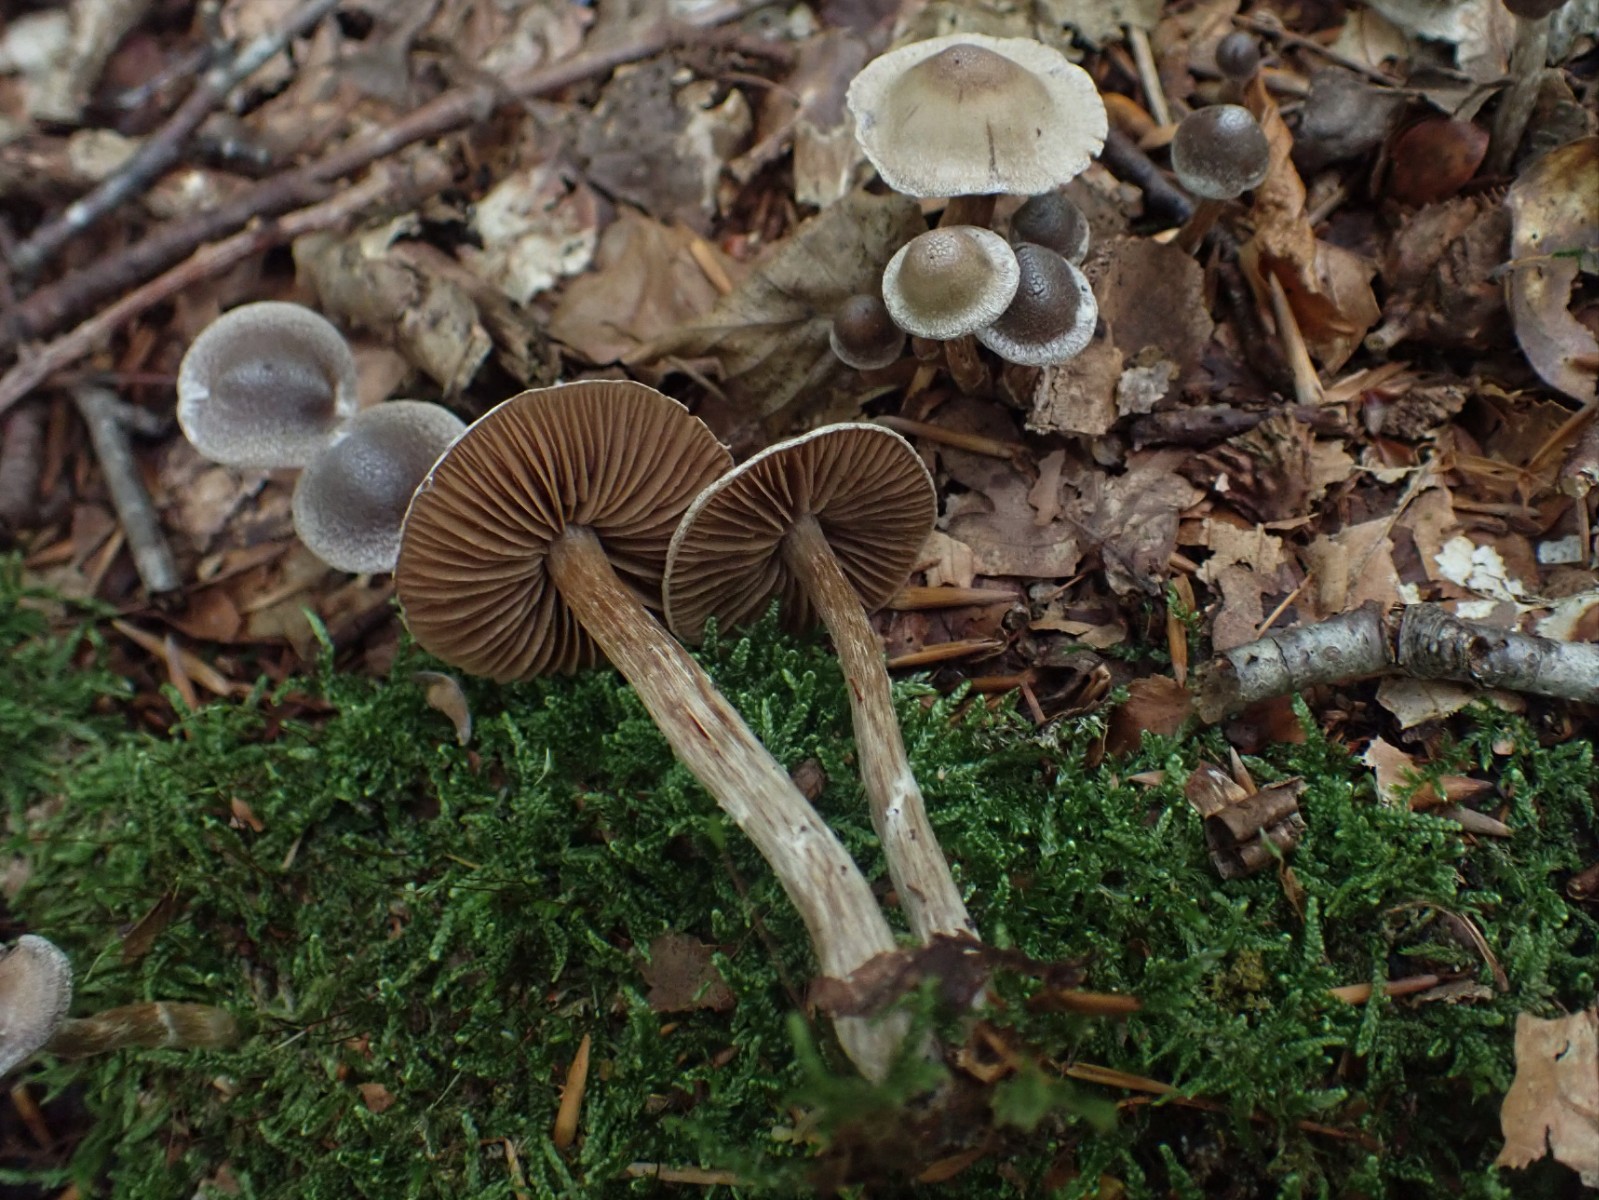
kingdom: Fungi
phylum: Basidiomycota
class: Agaricomycetes
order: Agaricales
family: Cortinariaceae
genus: Cortinarius
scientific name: Cortinarius geraniolens
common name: geranium-slørhat
